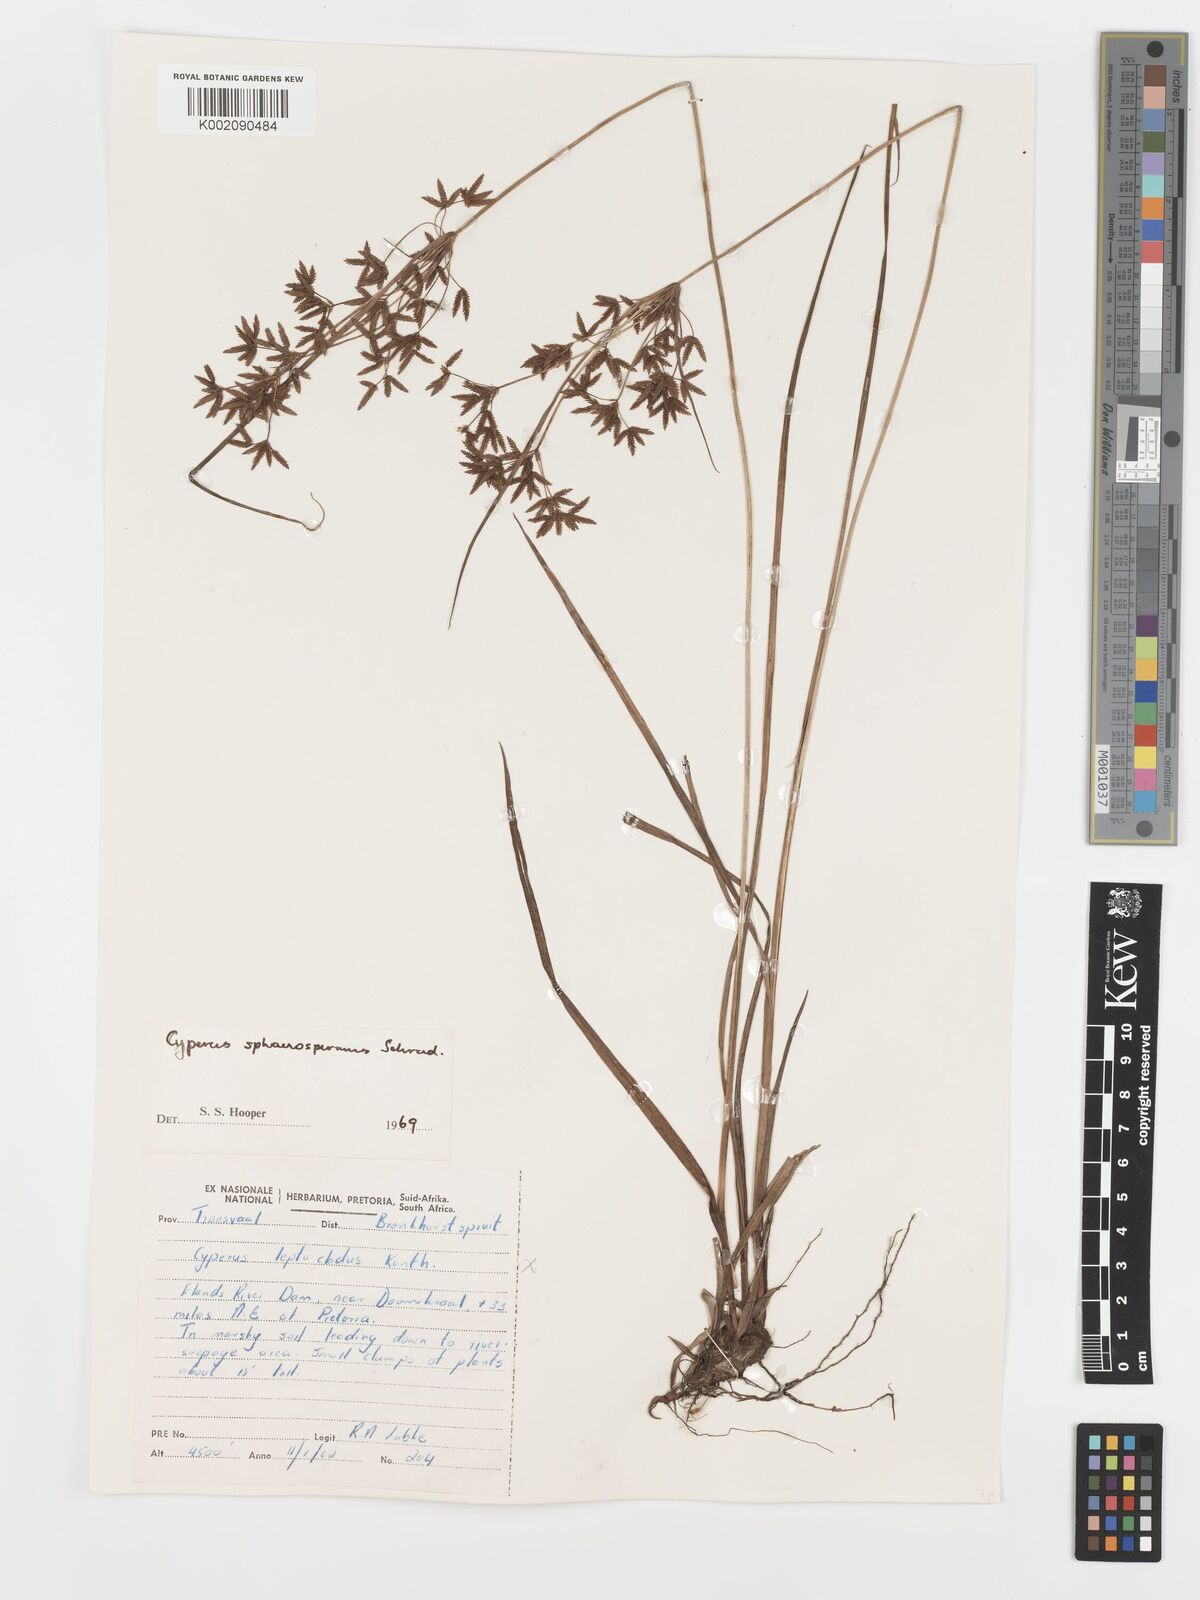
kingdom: Plantae
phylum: Tracheophyta
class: Liliopsida
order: Poales
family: Cyperaceae
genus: Cyperus
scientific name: Cyperus sphaerospermus
